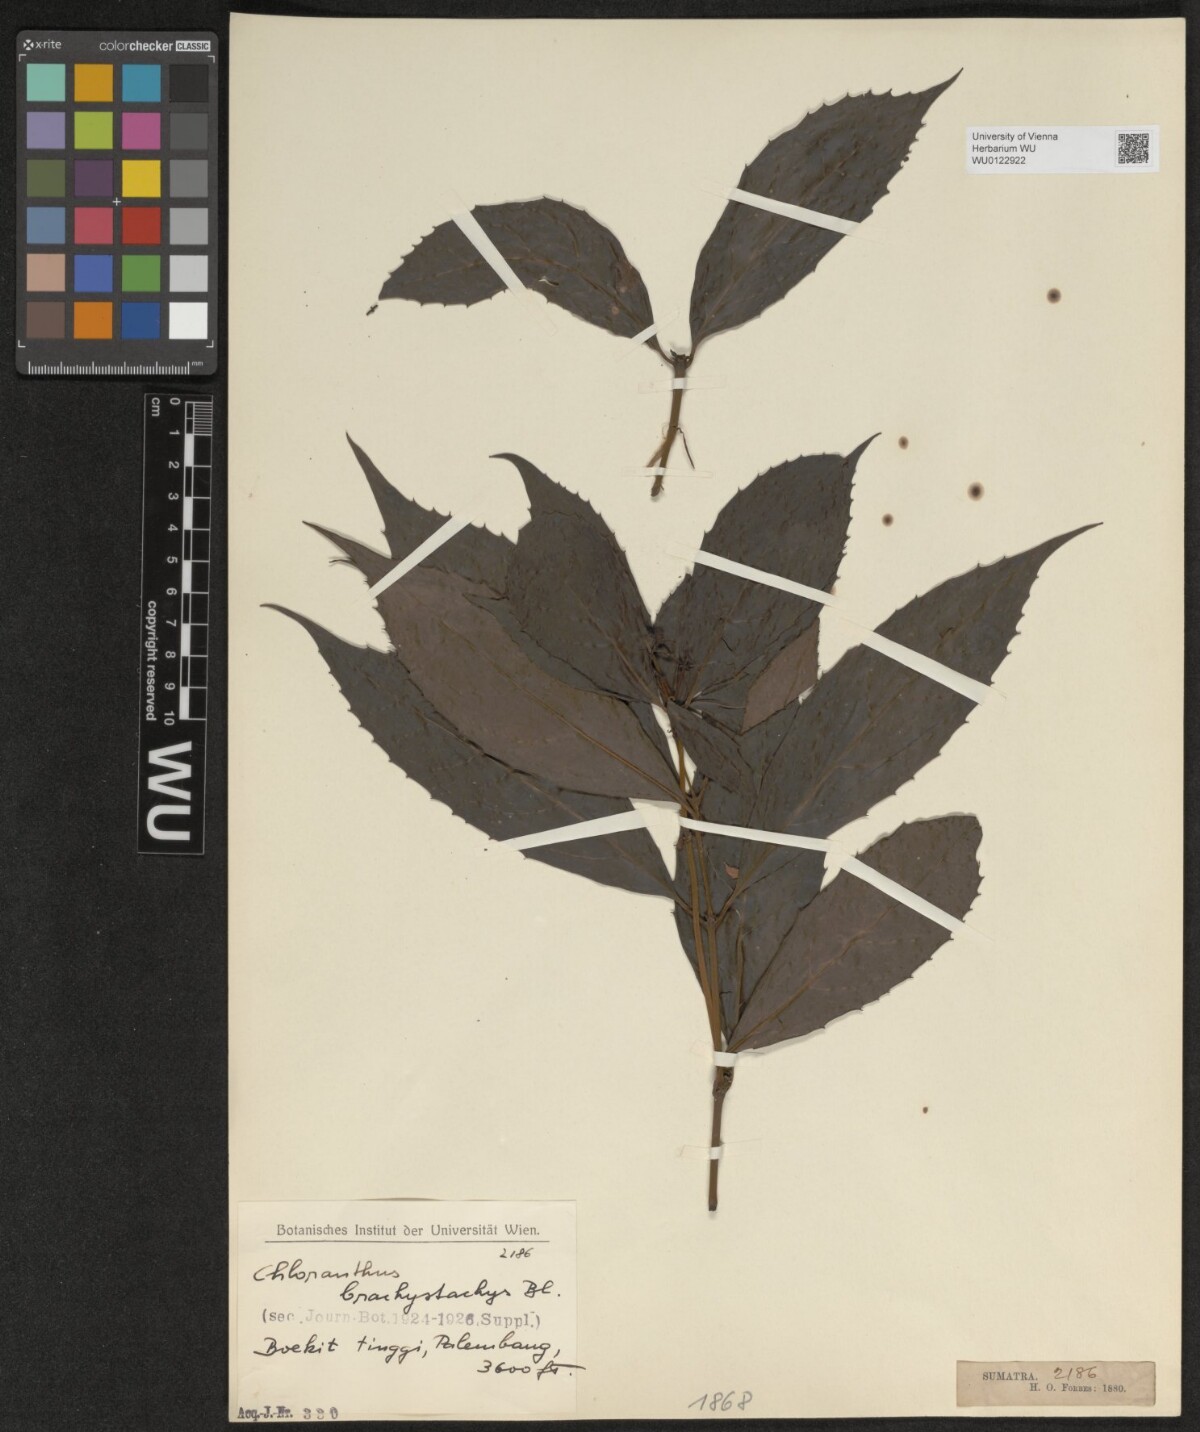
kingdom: Plantae
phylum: Tracheophyta
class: Magnoliopsida
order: Chloranthales
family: Chloranthaceae
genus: Chloranthus
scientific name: Chloranthus elatior
